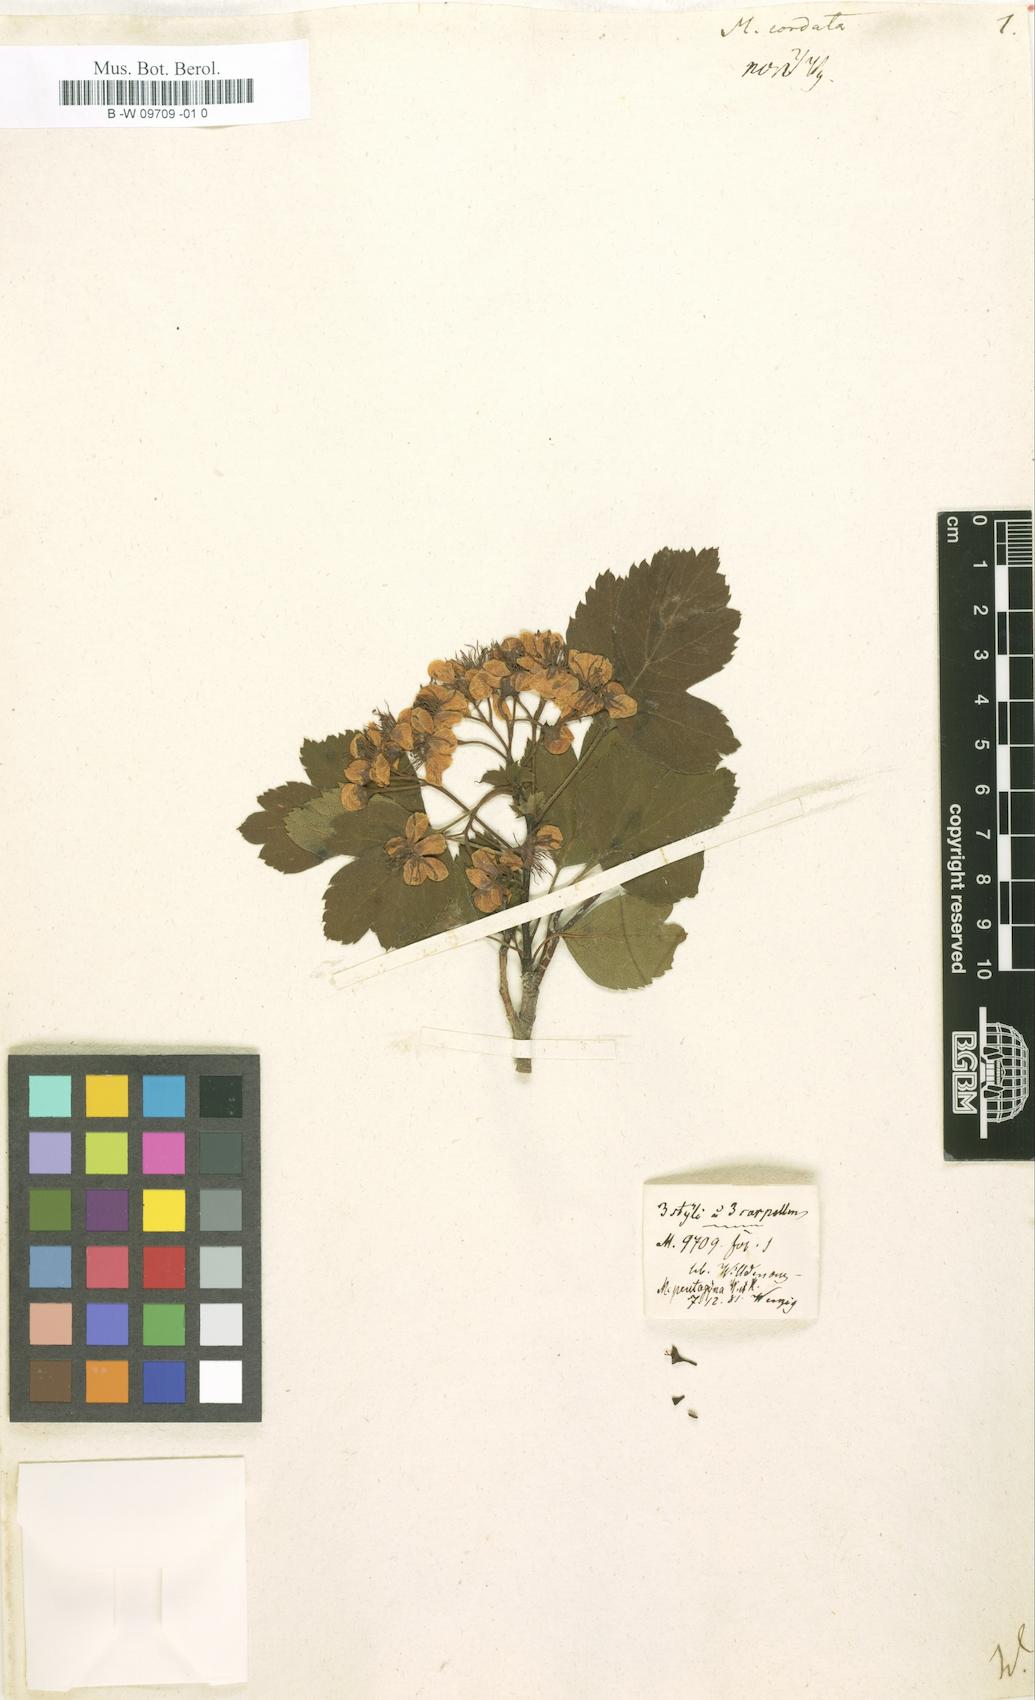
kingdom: Plantae
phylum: Tracheophyta
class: Magnoliopsida
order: Rosales
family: Rosaceae
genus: Crataegus
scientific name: Crataegus phaenopyrum
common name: Washington hawthorn
